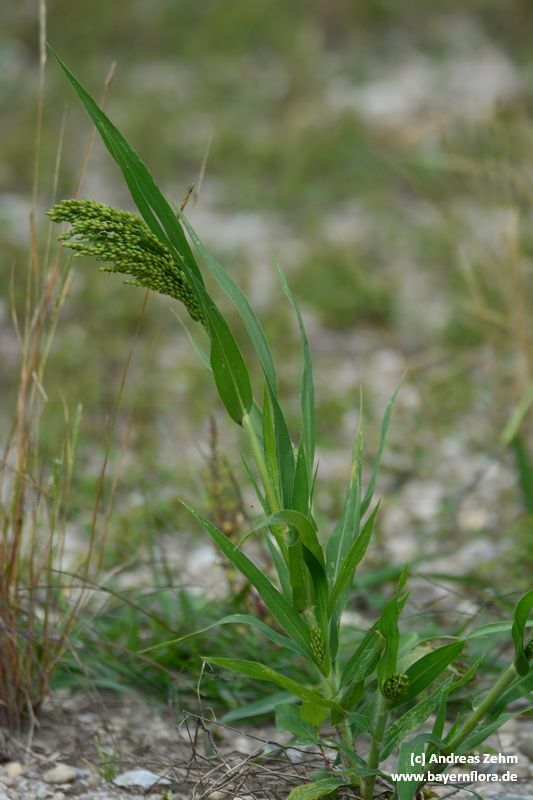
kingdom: Plantae
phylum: Tracheophyta
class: Liliopsida
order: Poales
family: Poaceae
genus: Panicum
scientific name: Panicum miliaceum
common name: Common millet
